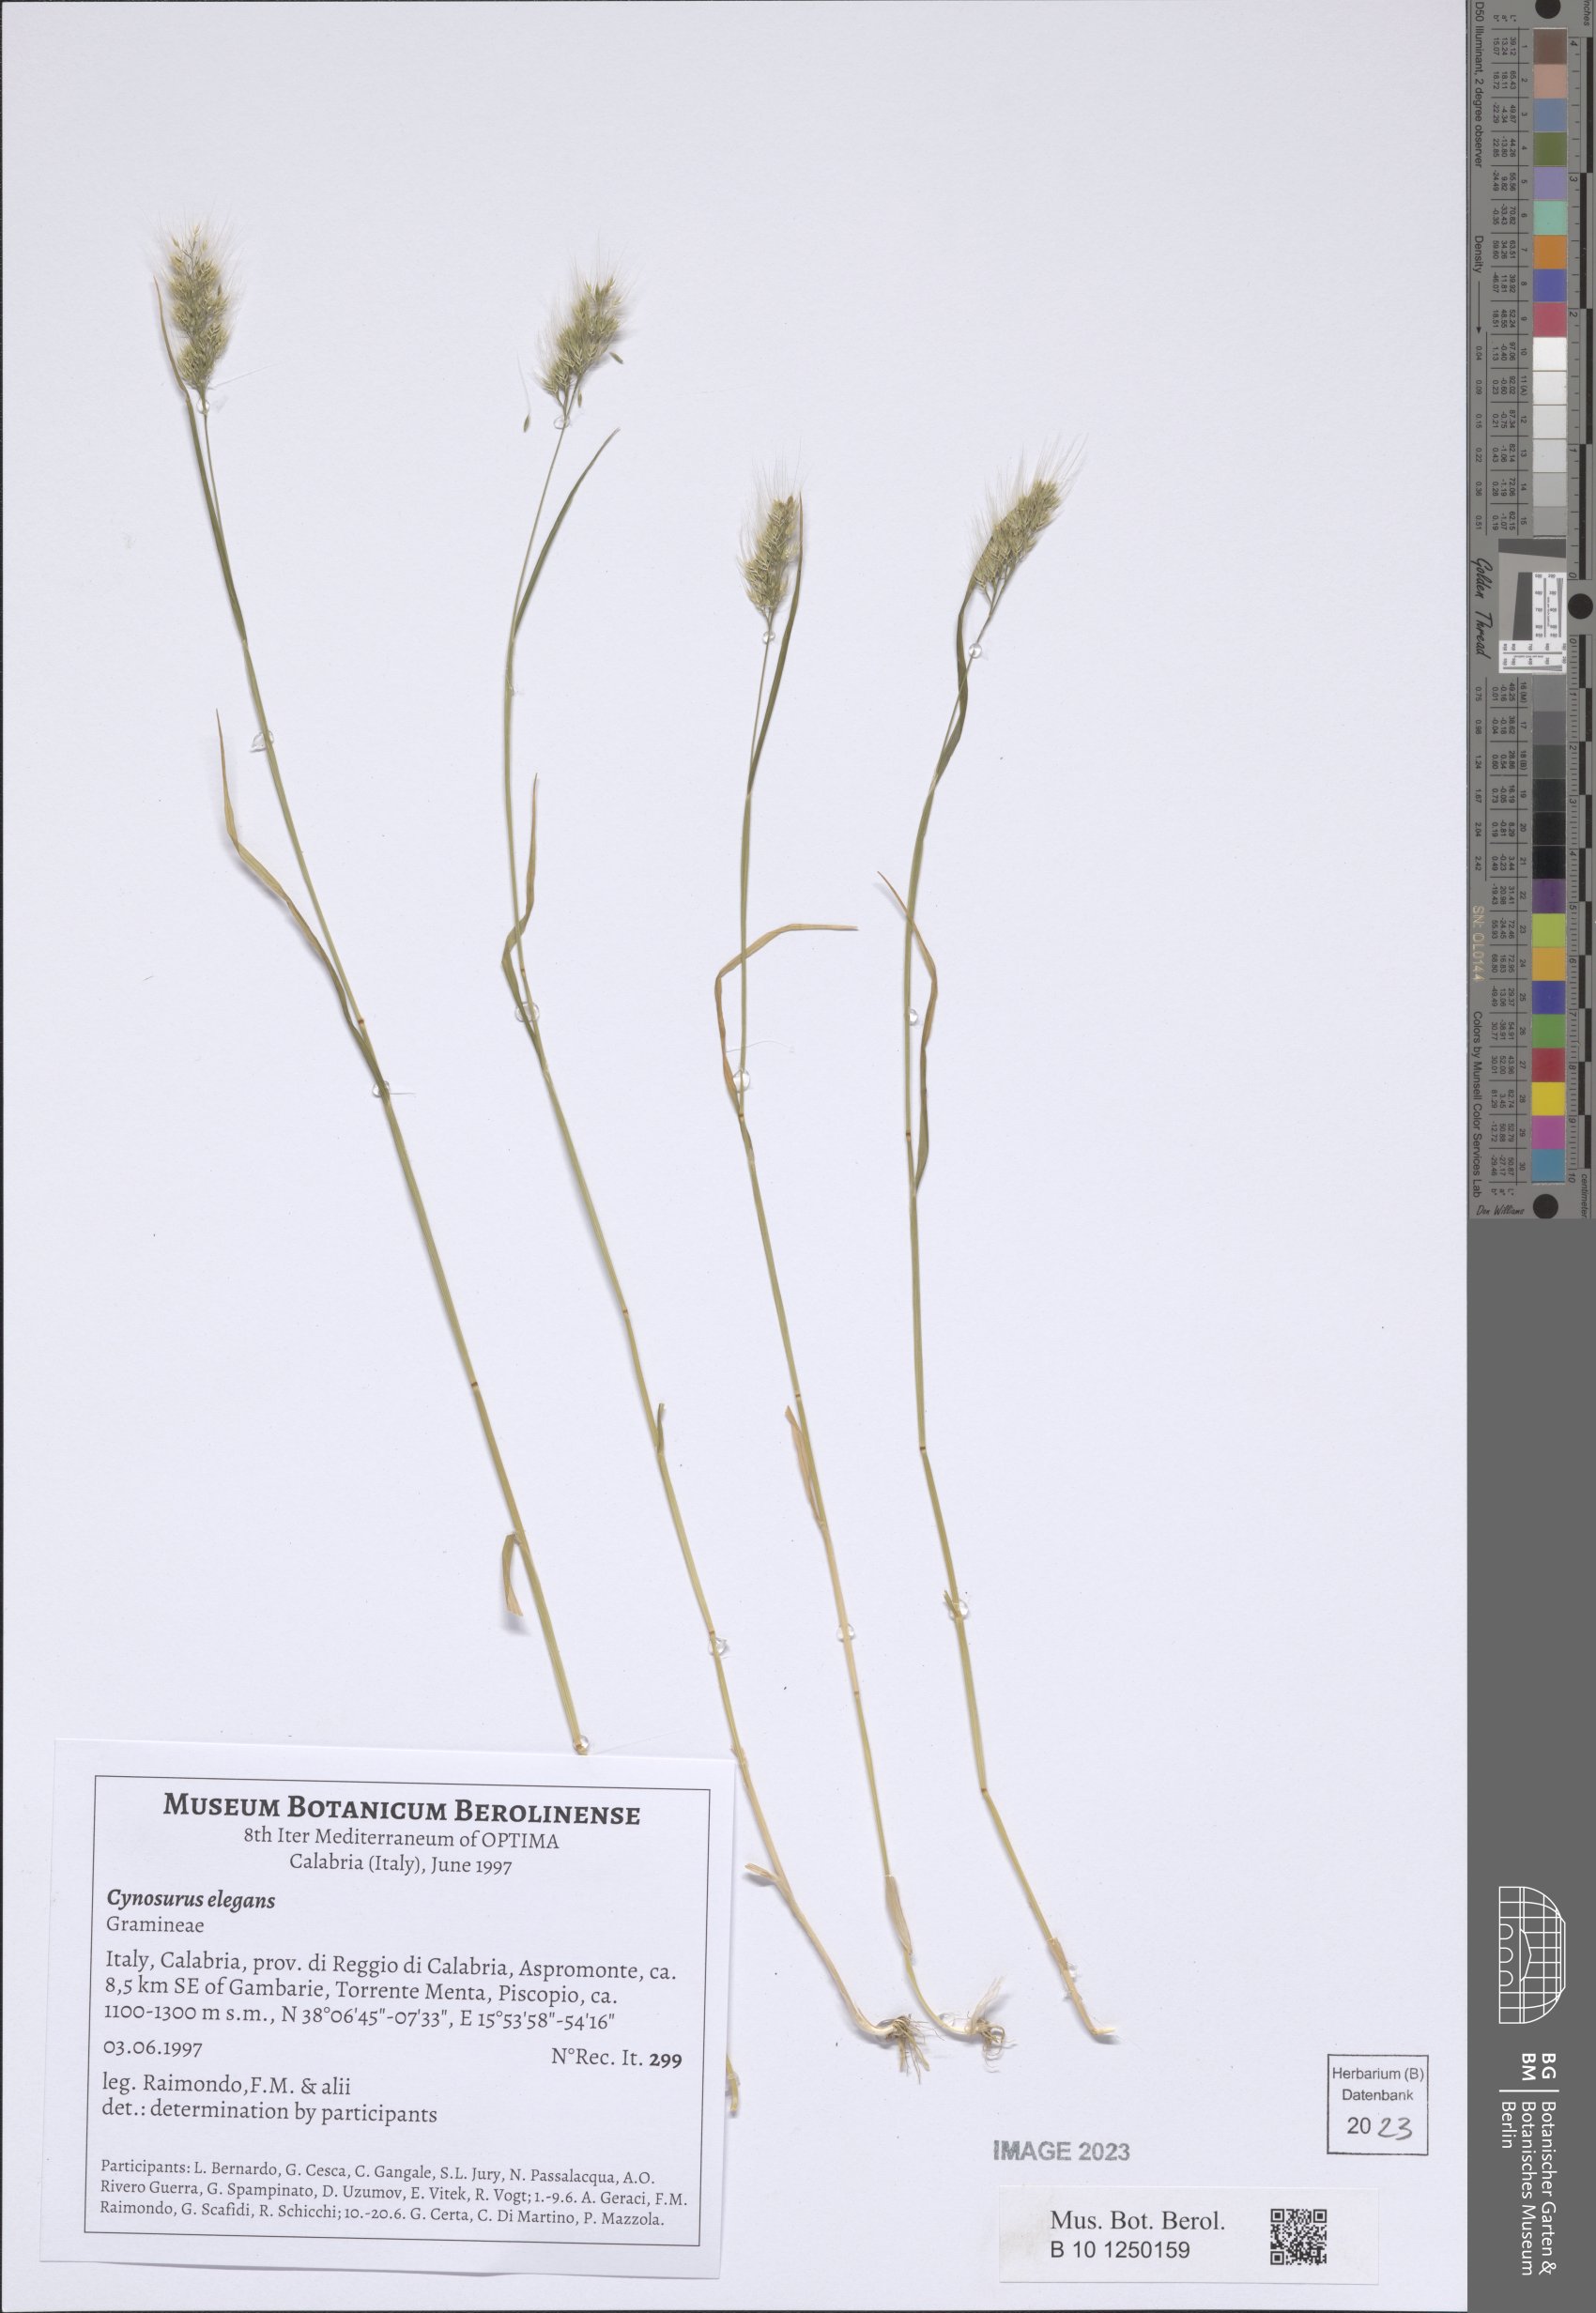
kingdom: Plantae
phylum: Tracheophyta
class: Liliopsida
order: Poales
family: Poaceae
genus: Cynosurus
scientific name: Cynosurus elegans
